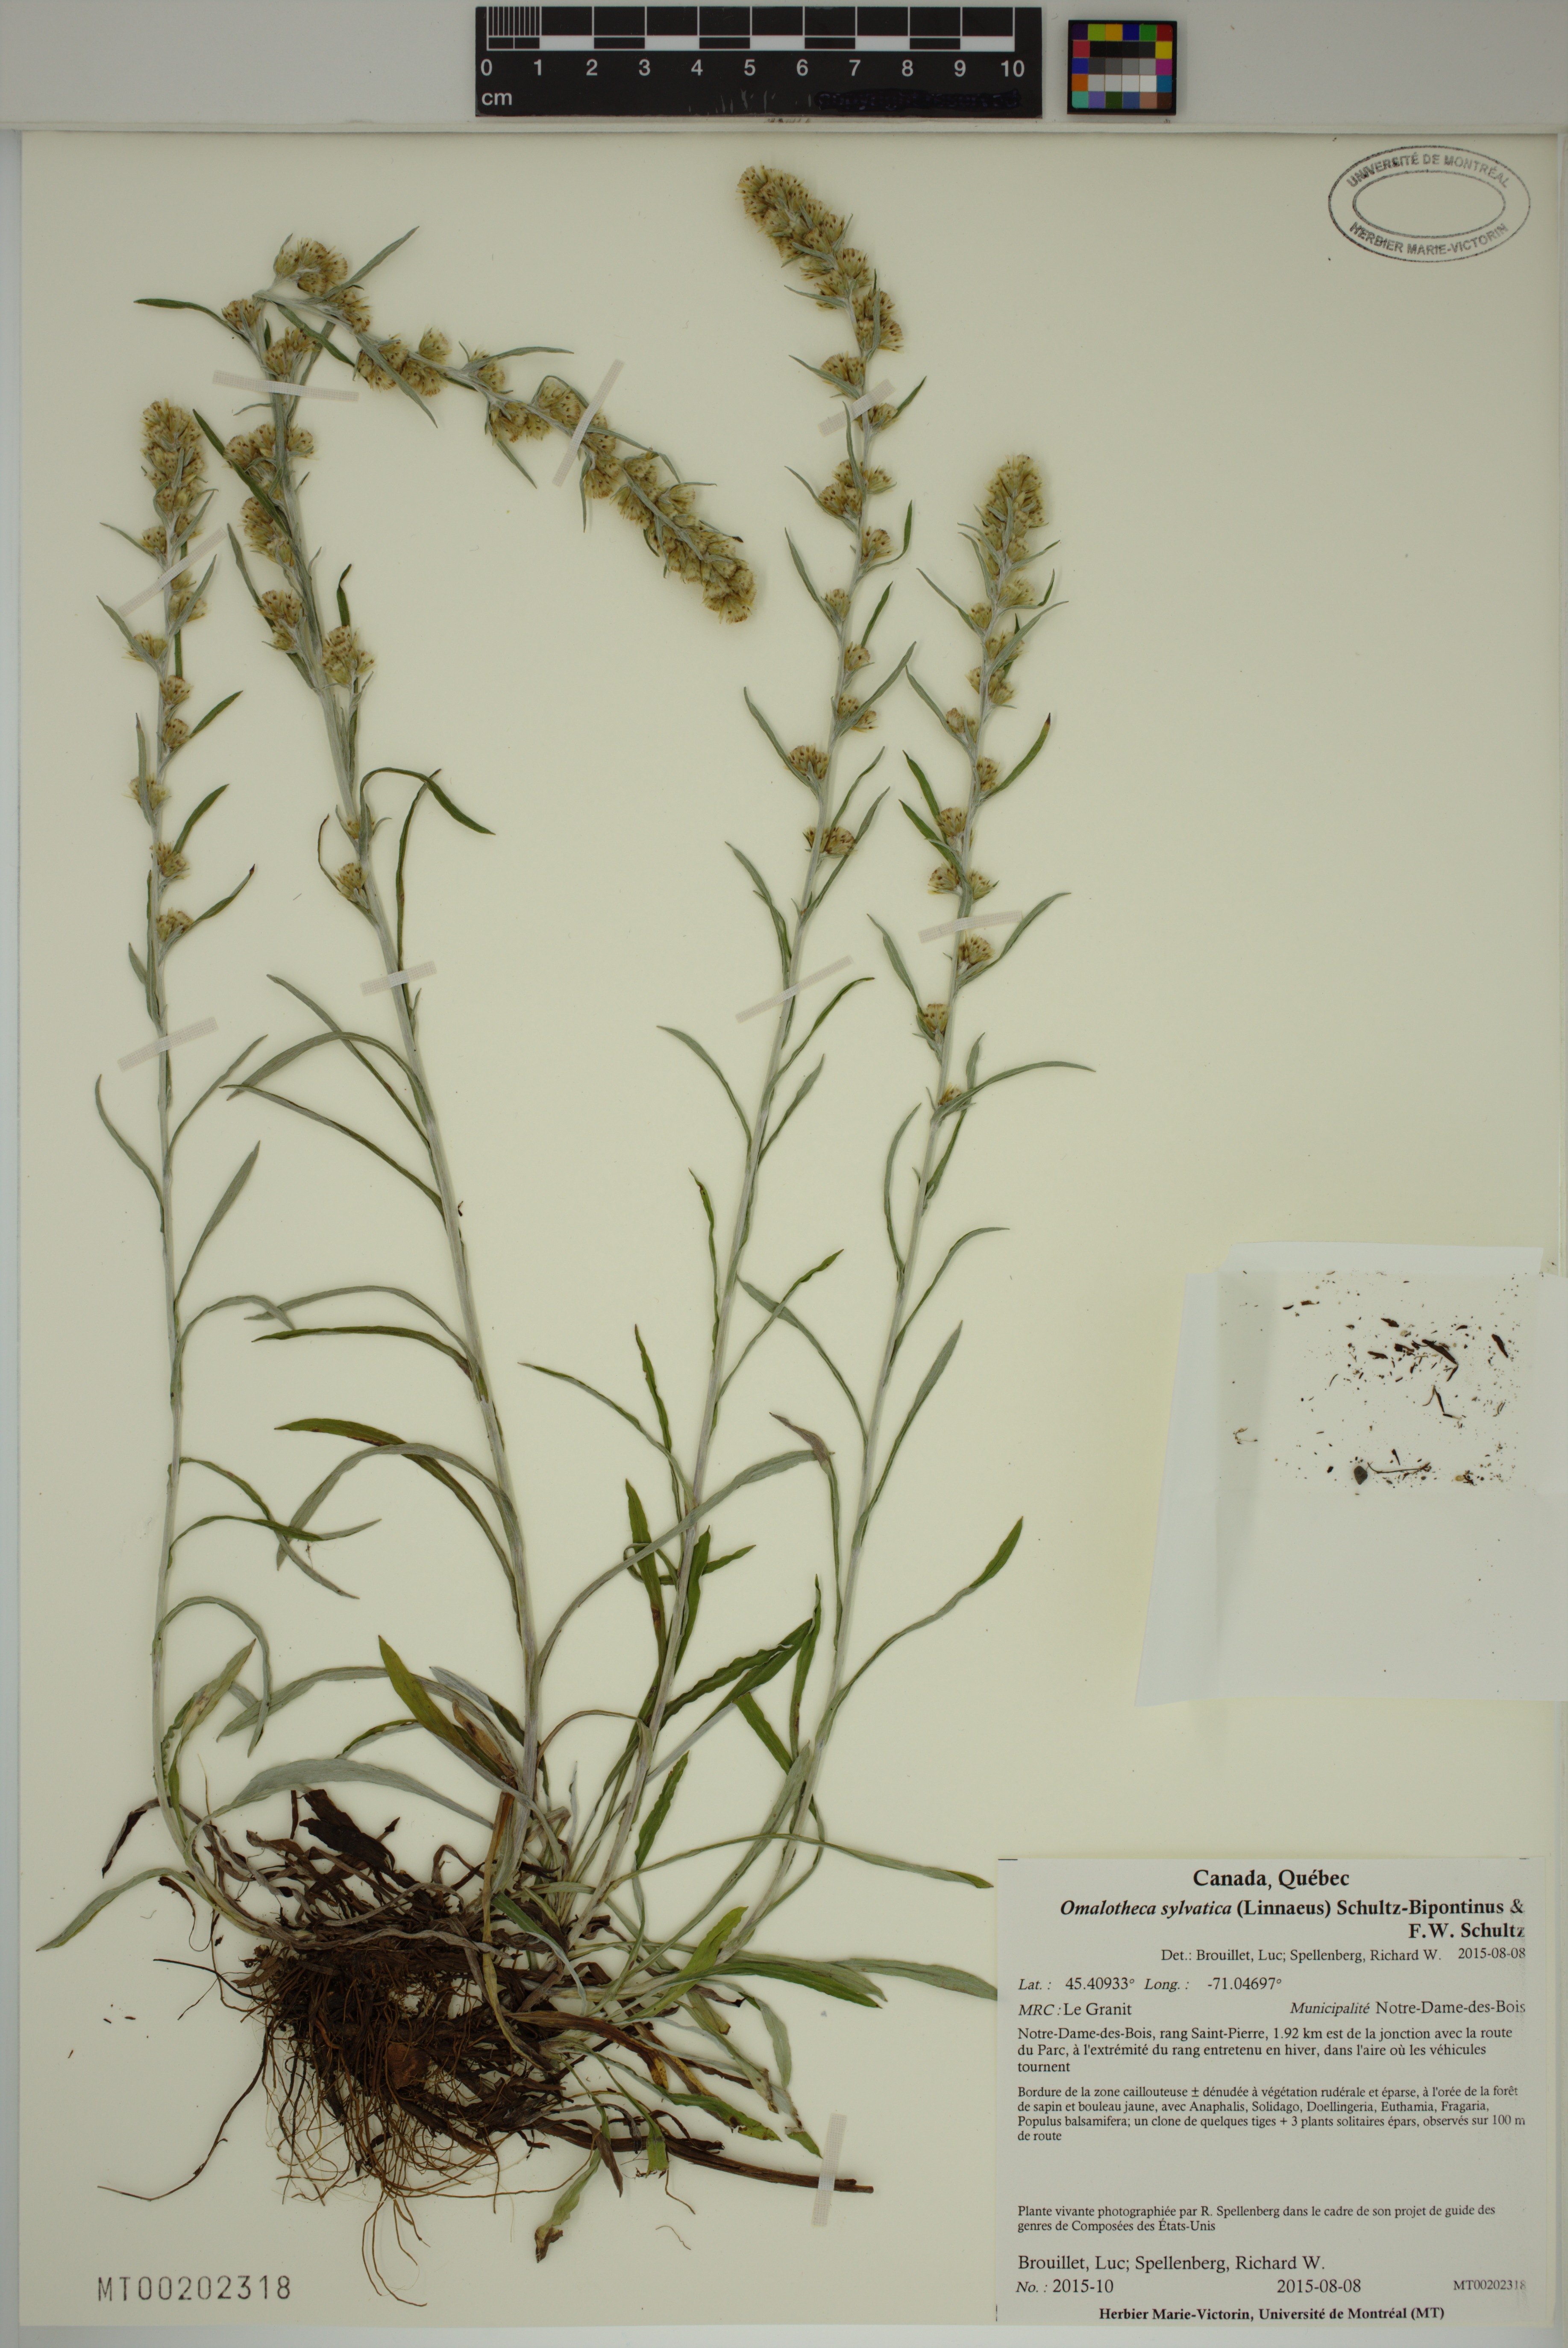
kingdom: Plantae
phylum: Tracheophyta
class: Magnoliopsida
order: Asterales
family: Asteraceae
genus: Omalotheca
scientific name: Omalotheca sylvatica
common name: Heath cudweed
